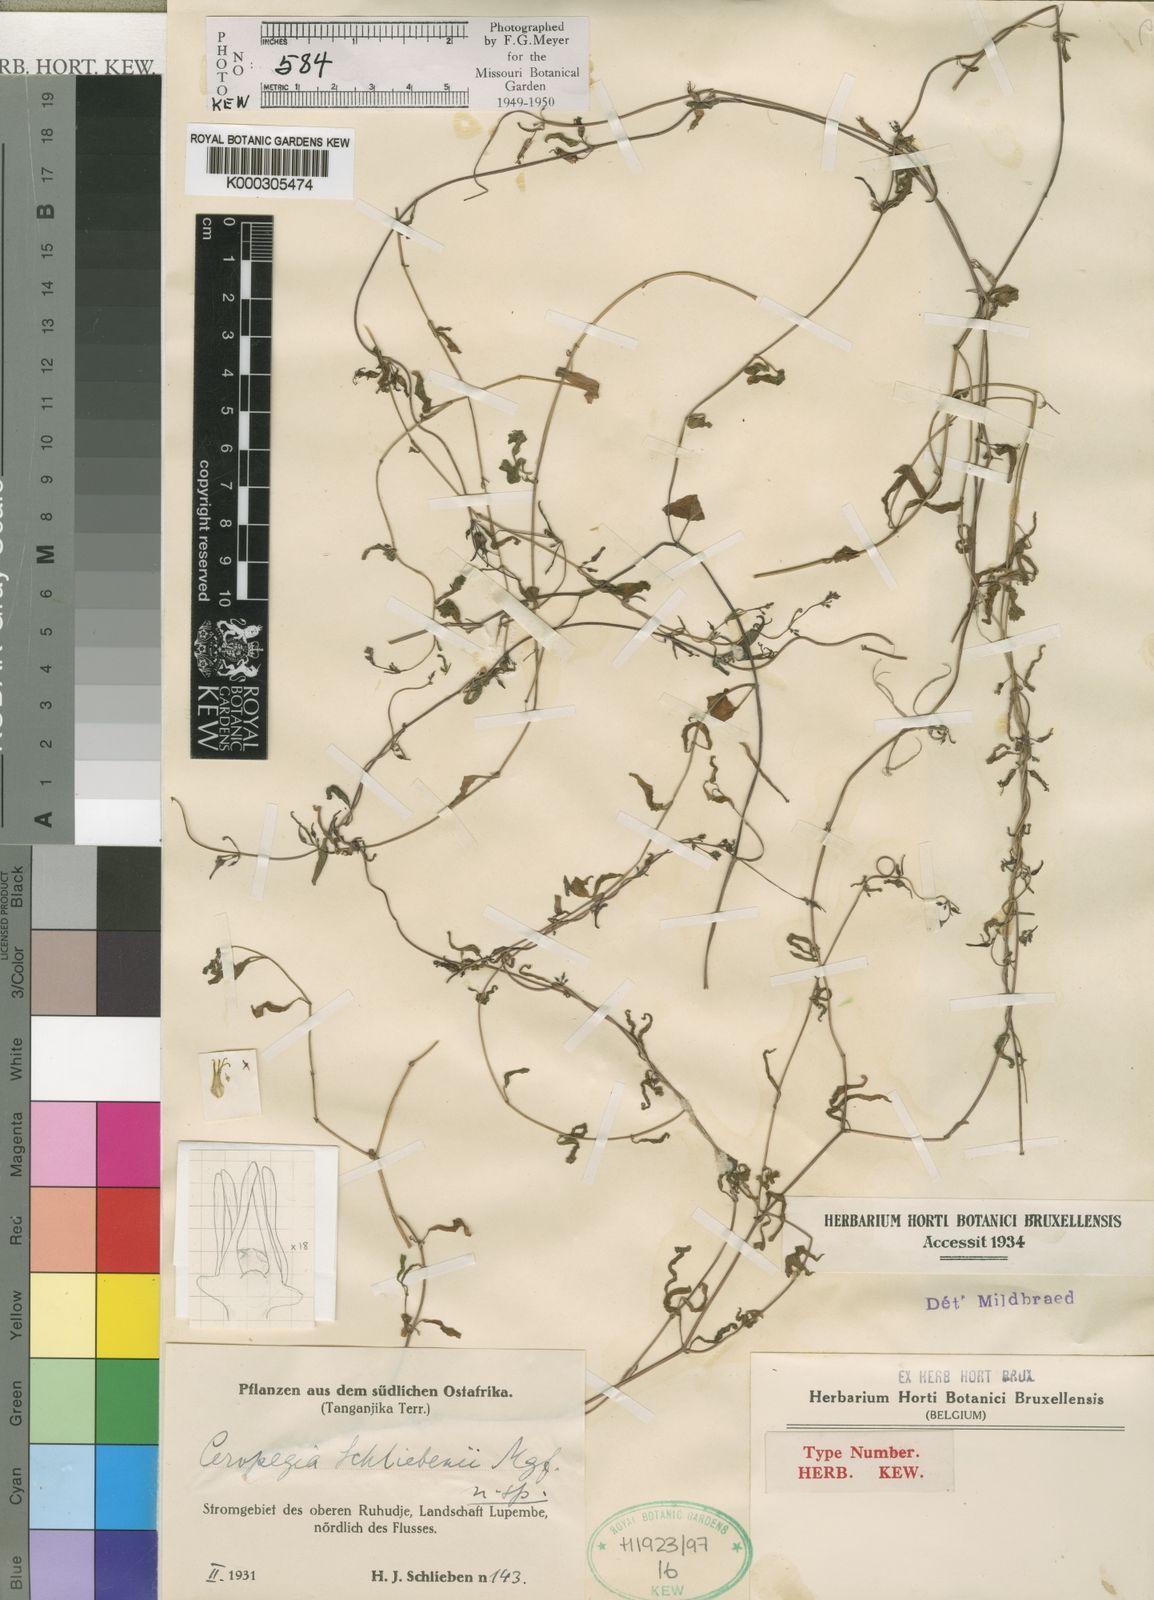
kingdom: Plantae
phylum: Tracheophyta
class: Magnoliopsida
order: Gentianales
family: Apocynaceae
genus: Ceropegia
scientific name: Ceropegia schliebenii
